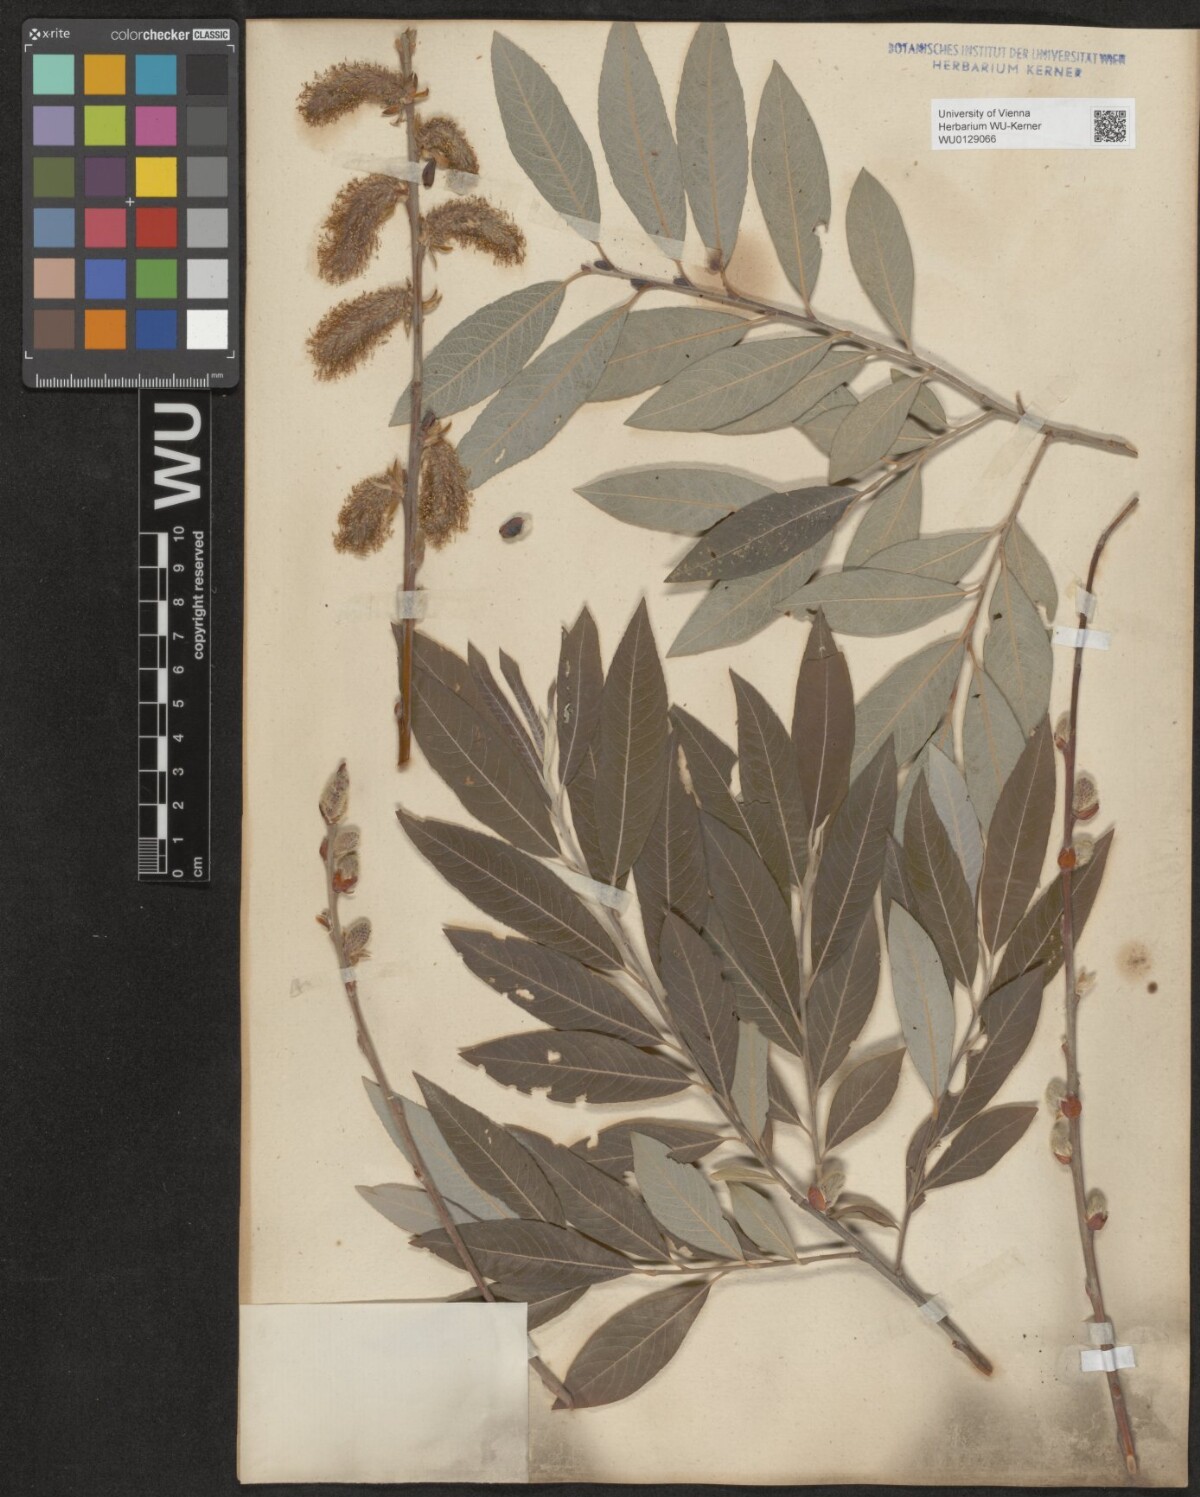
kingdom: Plantae
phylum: Tracheophyta
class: Magnoliopsida
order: Malpighiales
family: Salicaceae
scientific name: Salicaceae
